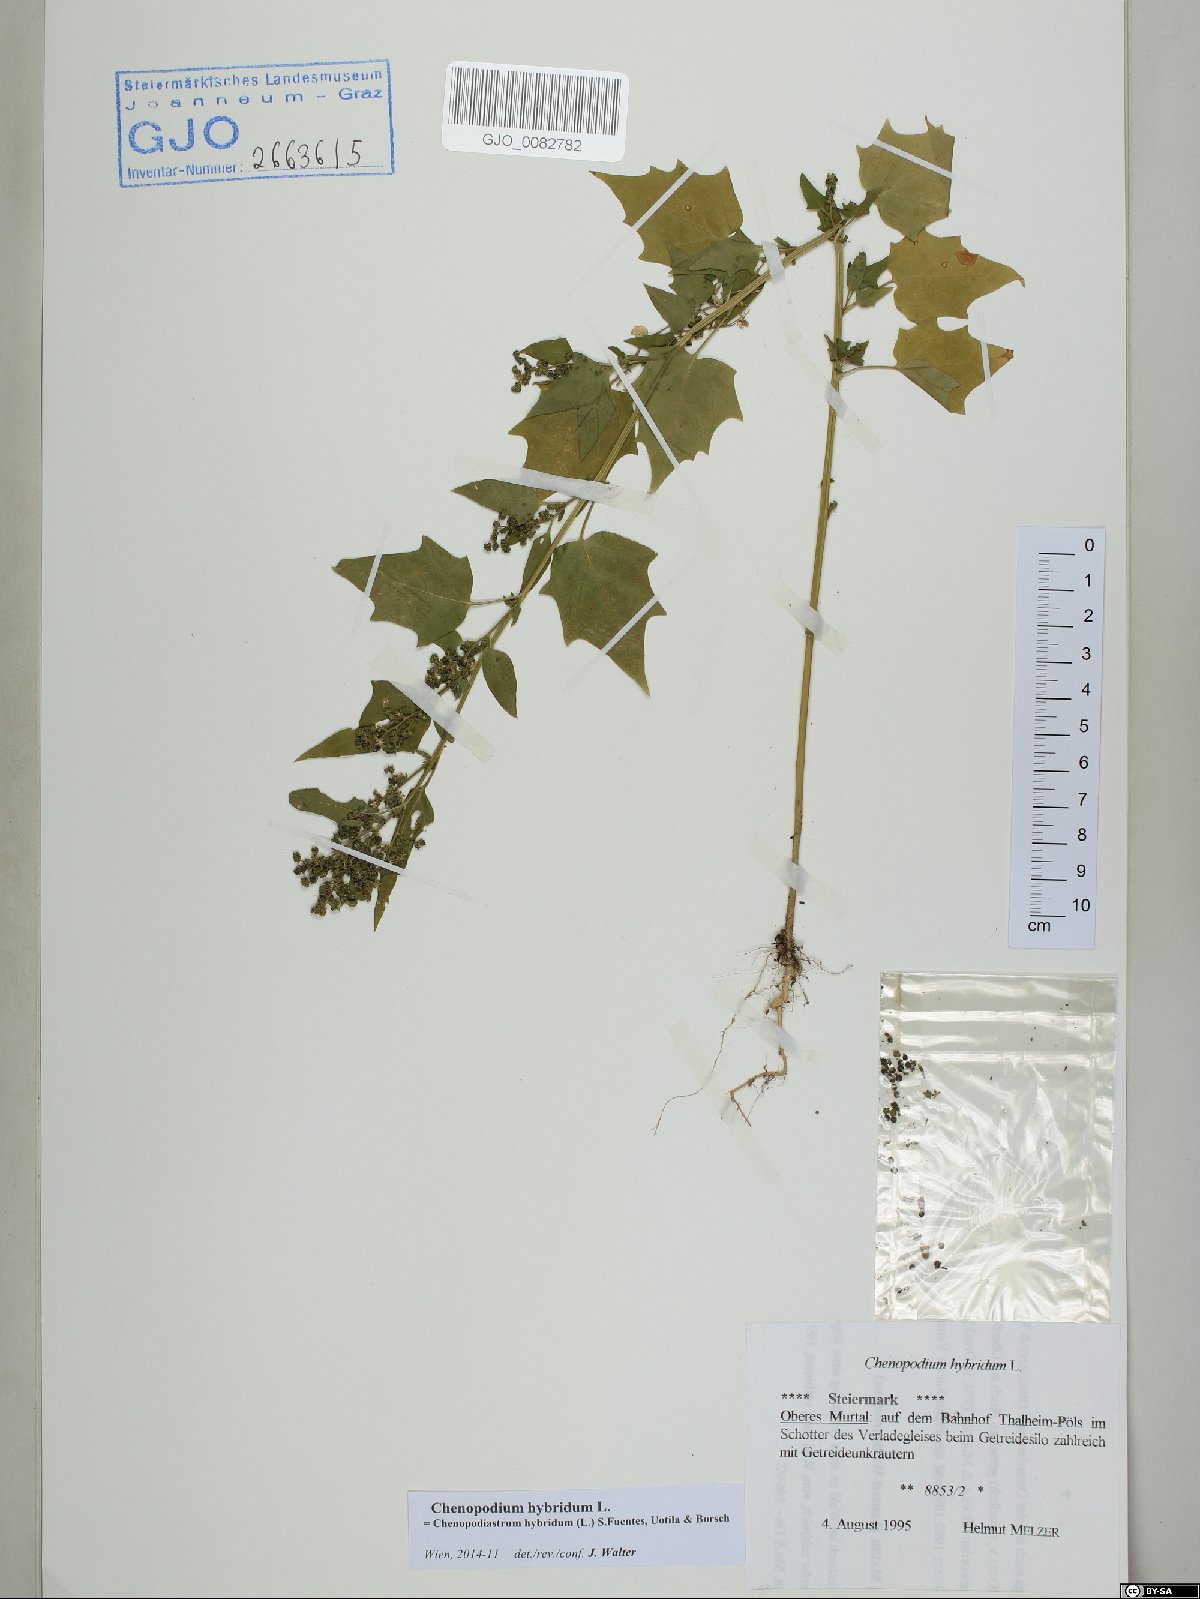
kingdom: Plantae
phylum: Tracheophyta
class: Magnoliopsida
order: Caryophyllales
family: Amaranthaceae
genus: Chenopodiastrum
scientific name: Chenopodiastrum hybridum
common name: Mapleleaf goosefoot
